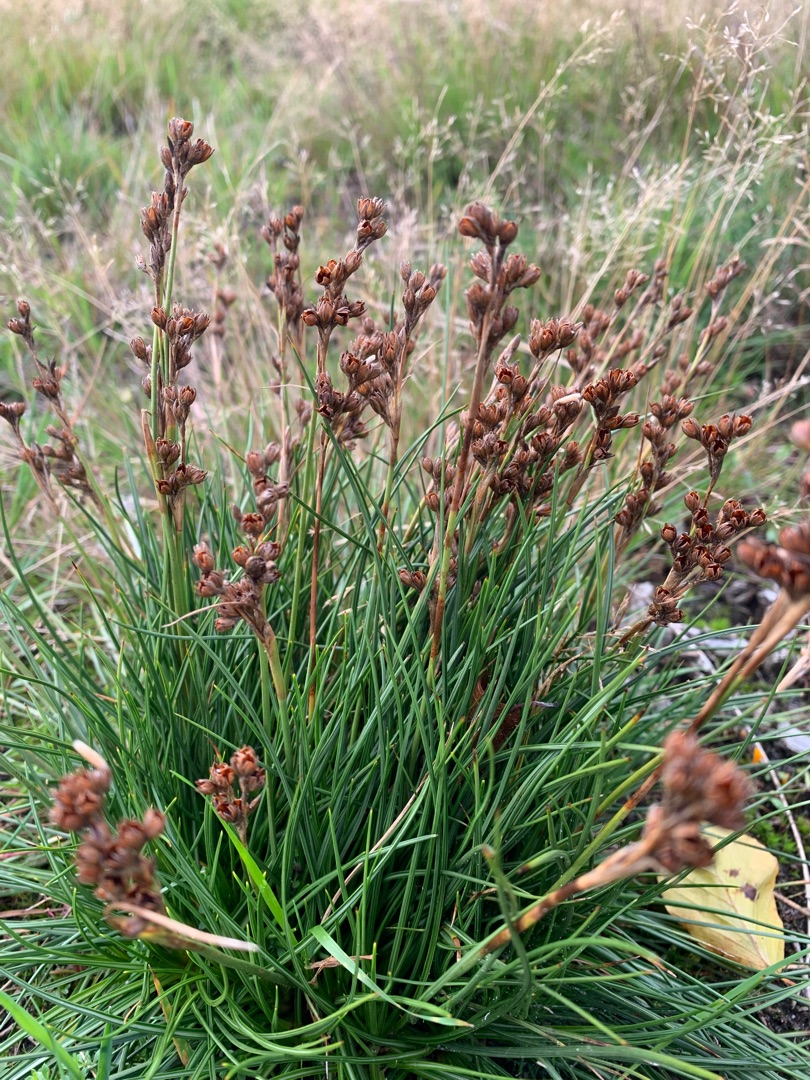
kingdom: Plantae
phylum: Tracheophyta
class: Liliopsida
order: Poales
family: Juncaceae
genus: Juncus
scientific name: Juncus squarrosus
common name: Børste-siv
